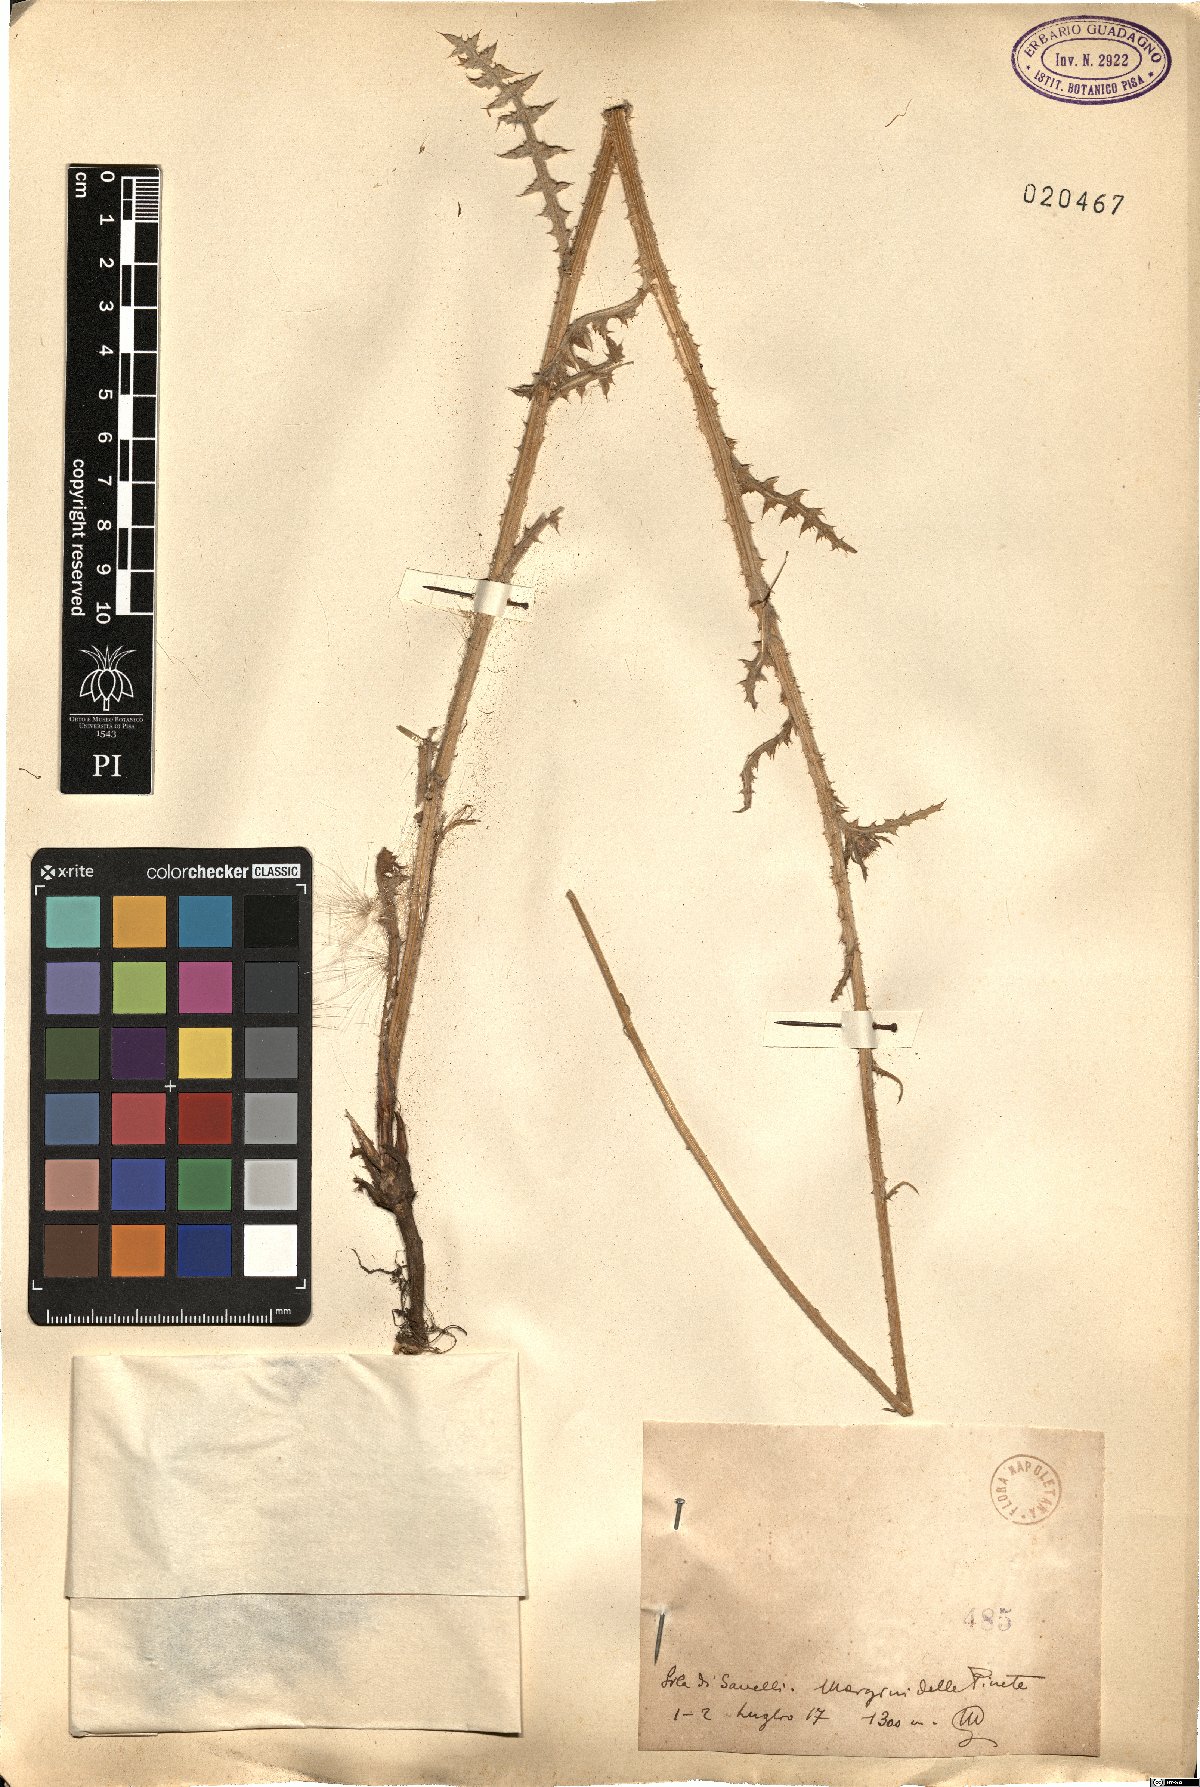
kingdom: Plantae
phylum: Tracheophyta
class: Magnoliopsida
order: Asterales
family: Asteraceae
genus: Carduus
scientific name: Carduus
